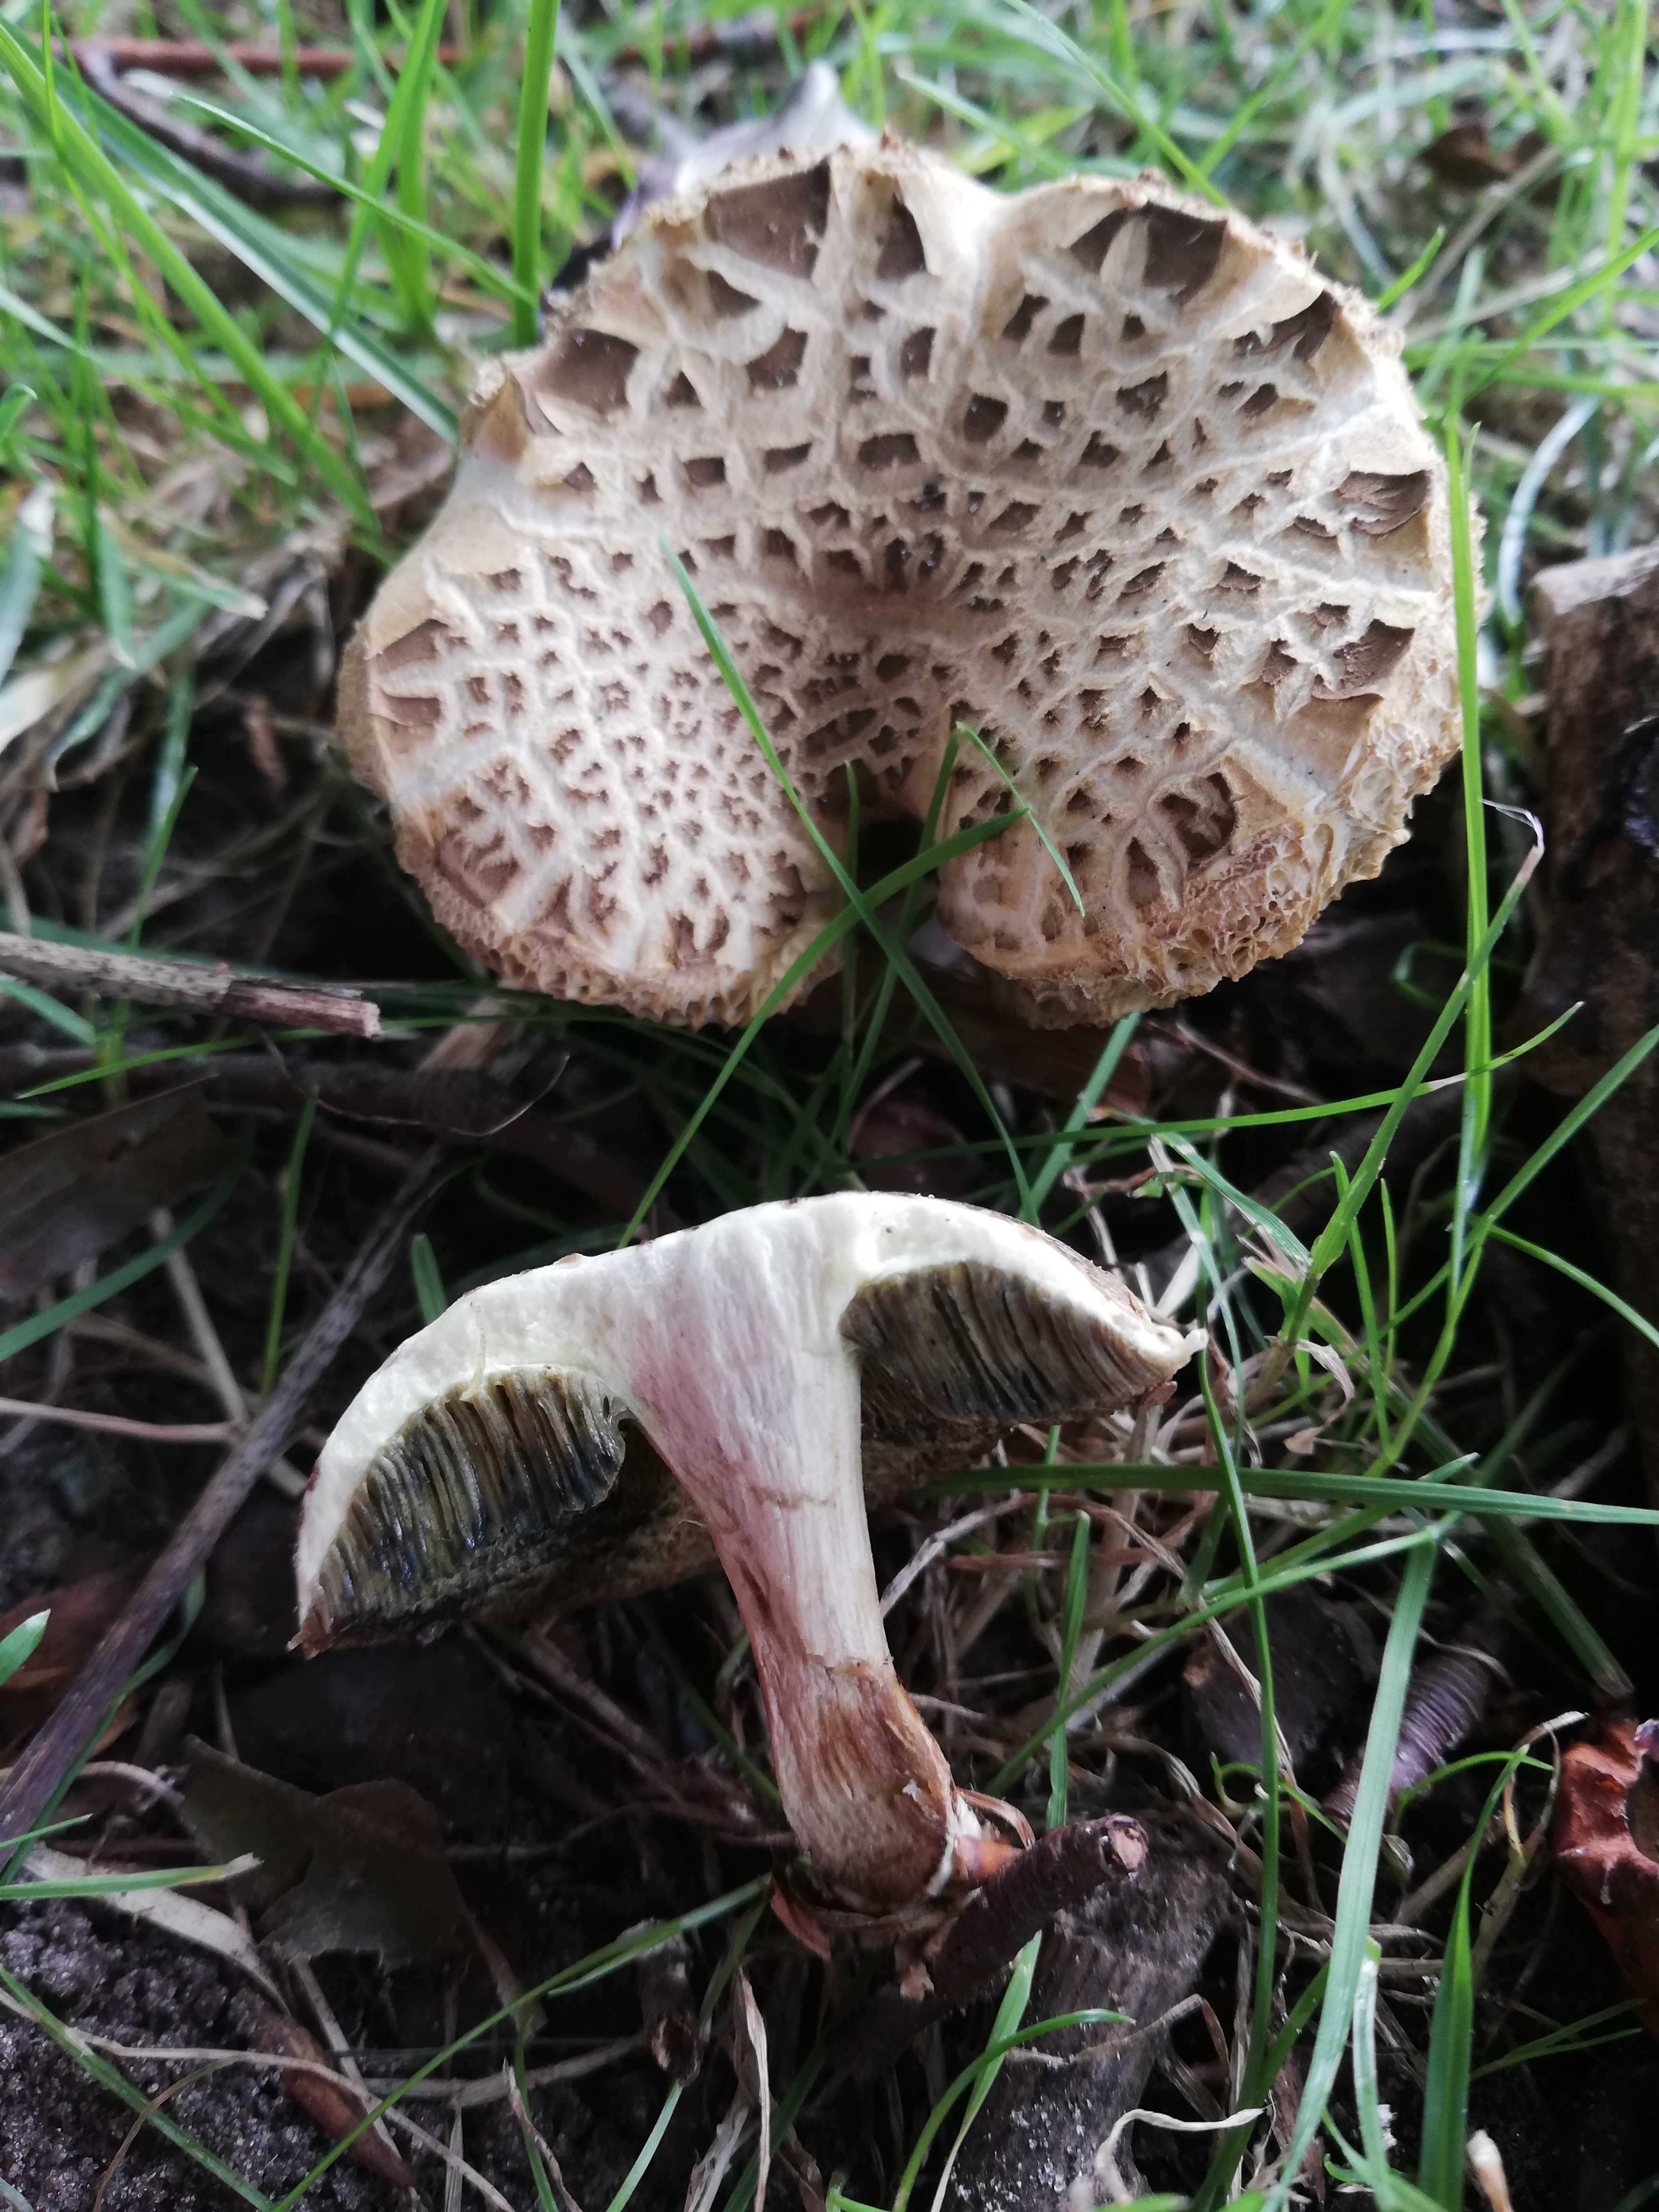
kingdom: Fungi
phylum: Basidiomycota
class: Agaricomycetes
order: Boletales
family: Boletaceae
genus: Xerocomellus
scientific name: Xerocomellus
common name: dværgrørhat
